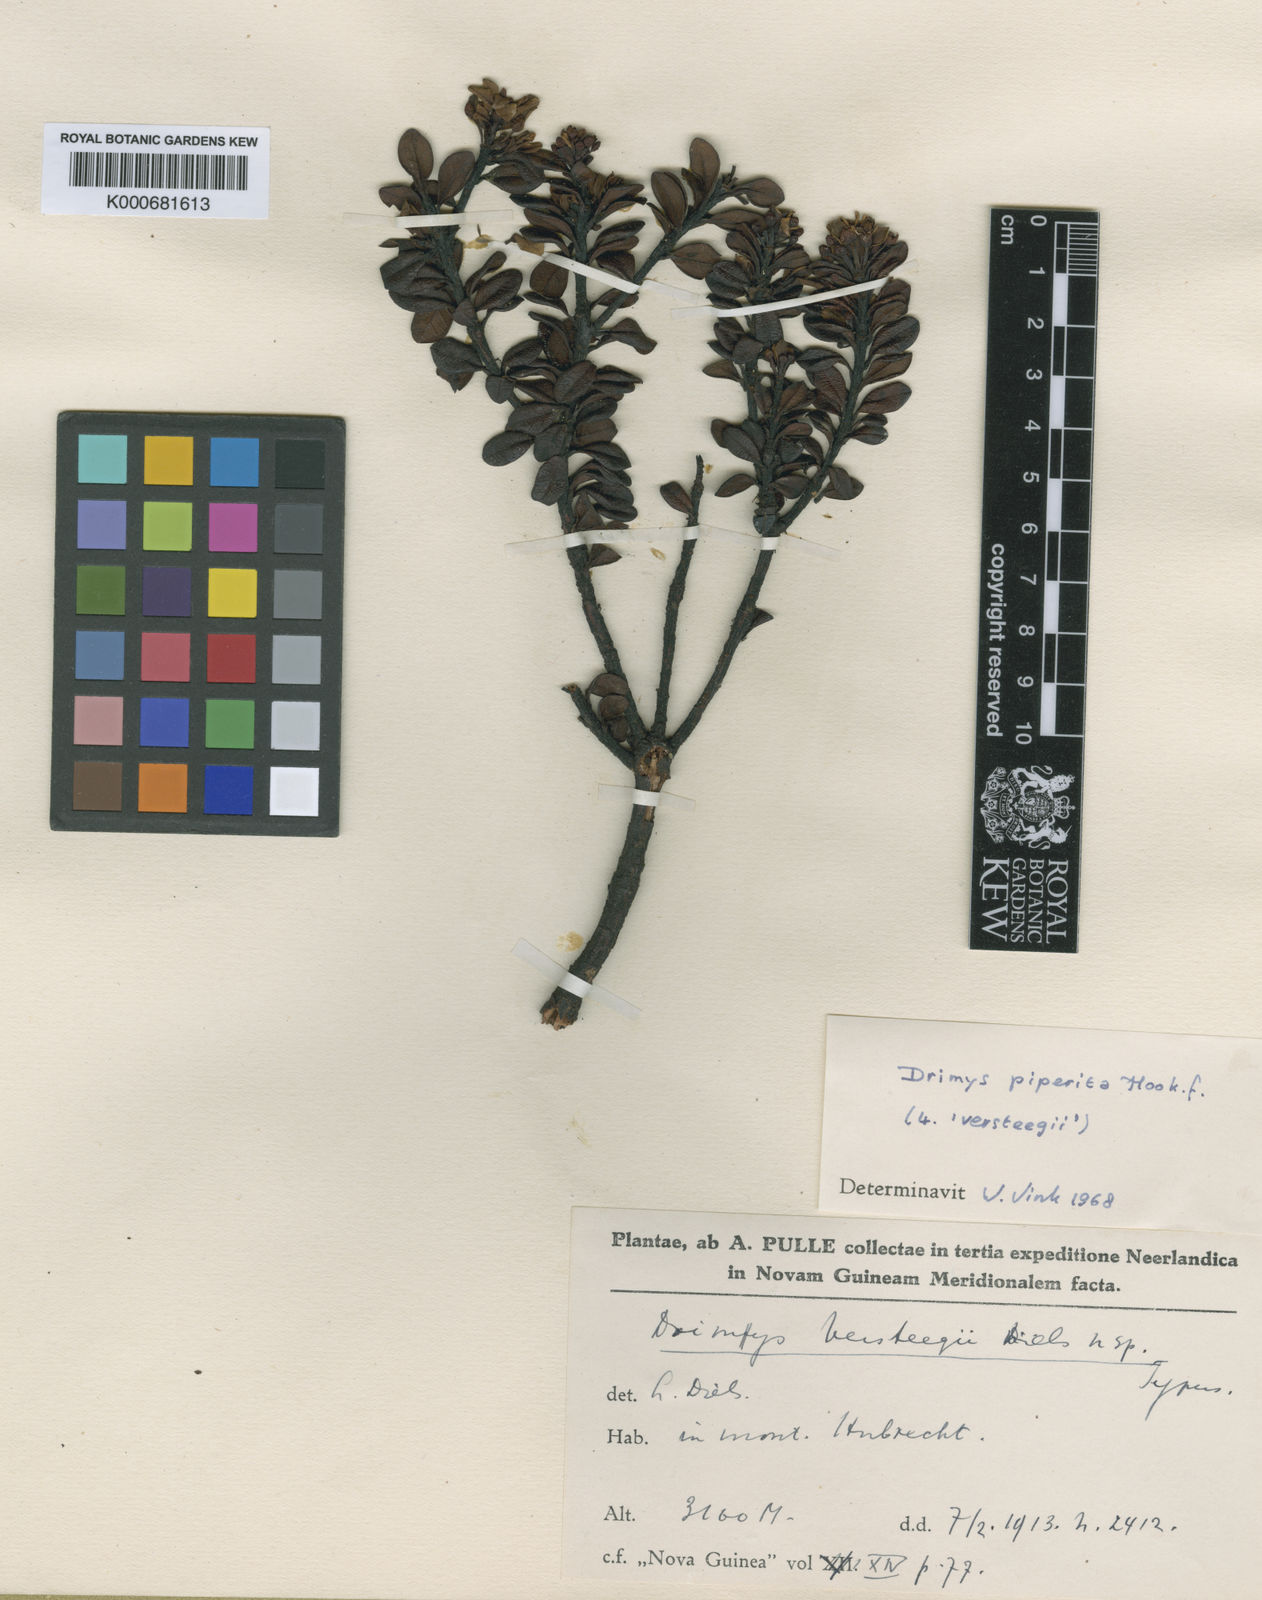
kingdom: Plantae
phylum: Tracheophyta
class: Magnoliopsida
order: Canellales
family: Winteraceae
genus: Drimys
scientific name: Drimys piperita
